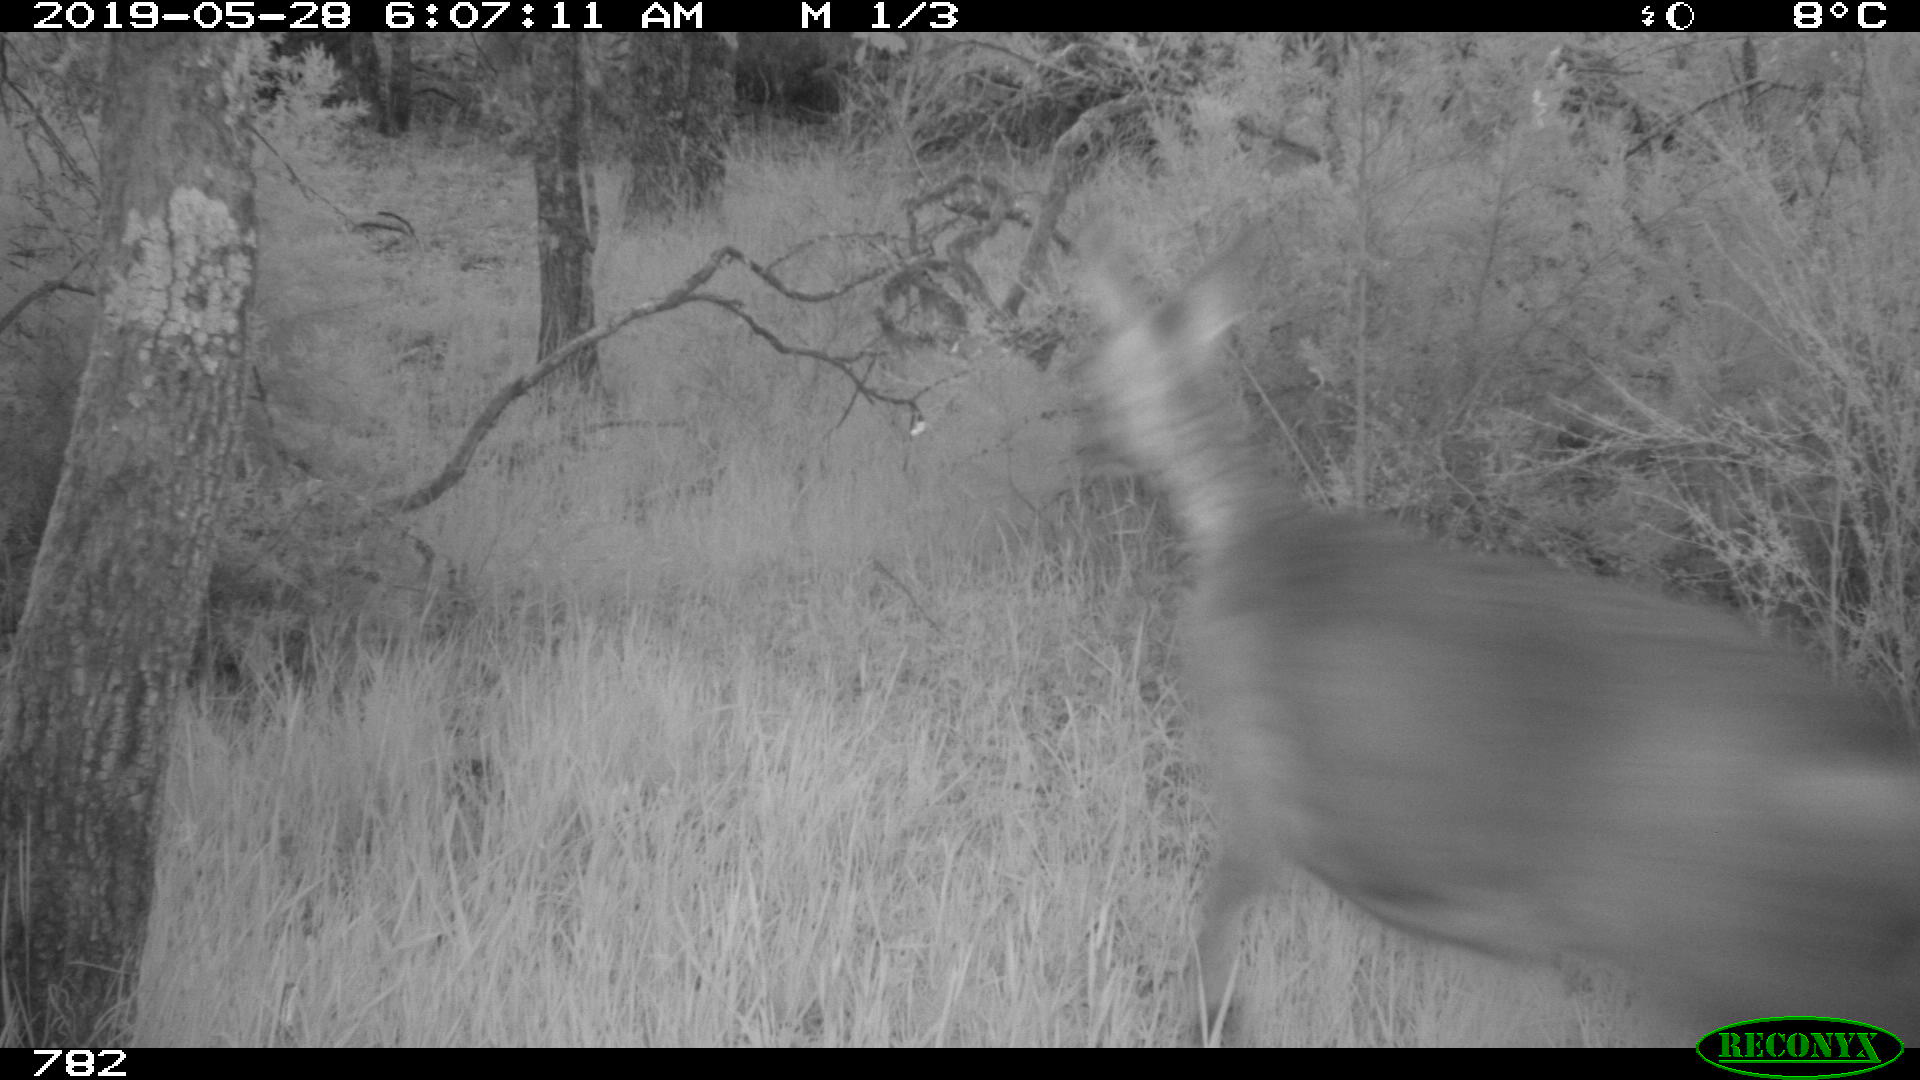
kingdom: Animalia
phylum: Chordata
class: Mammalia
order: Artiodactyla
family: Cervidae
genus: Capreolus
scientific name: Capreolus capreolus
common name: Western roe deer
